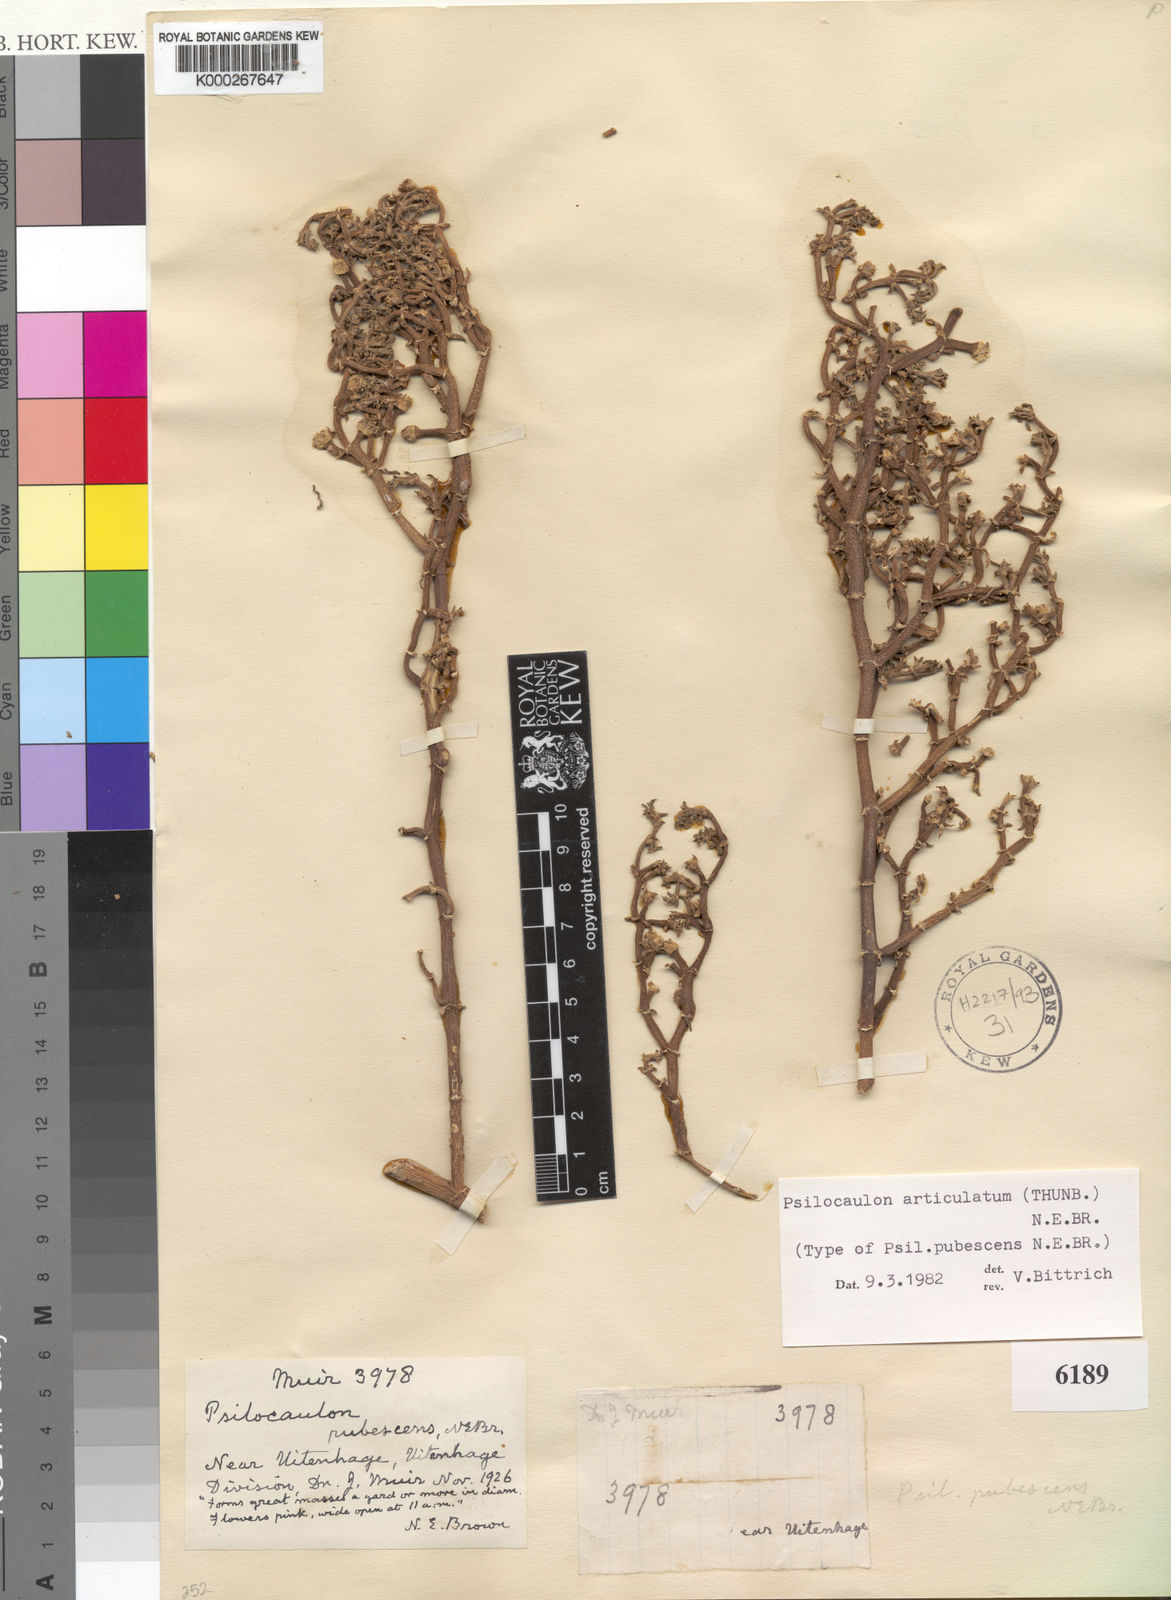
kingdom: Plantae
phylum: Tracheophyta
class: Magnoliopsida
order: Caryophyllales
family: Aizoaceae
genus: Mesembryanthemum
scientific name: Mesembryanthemum articulatum
